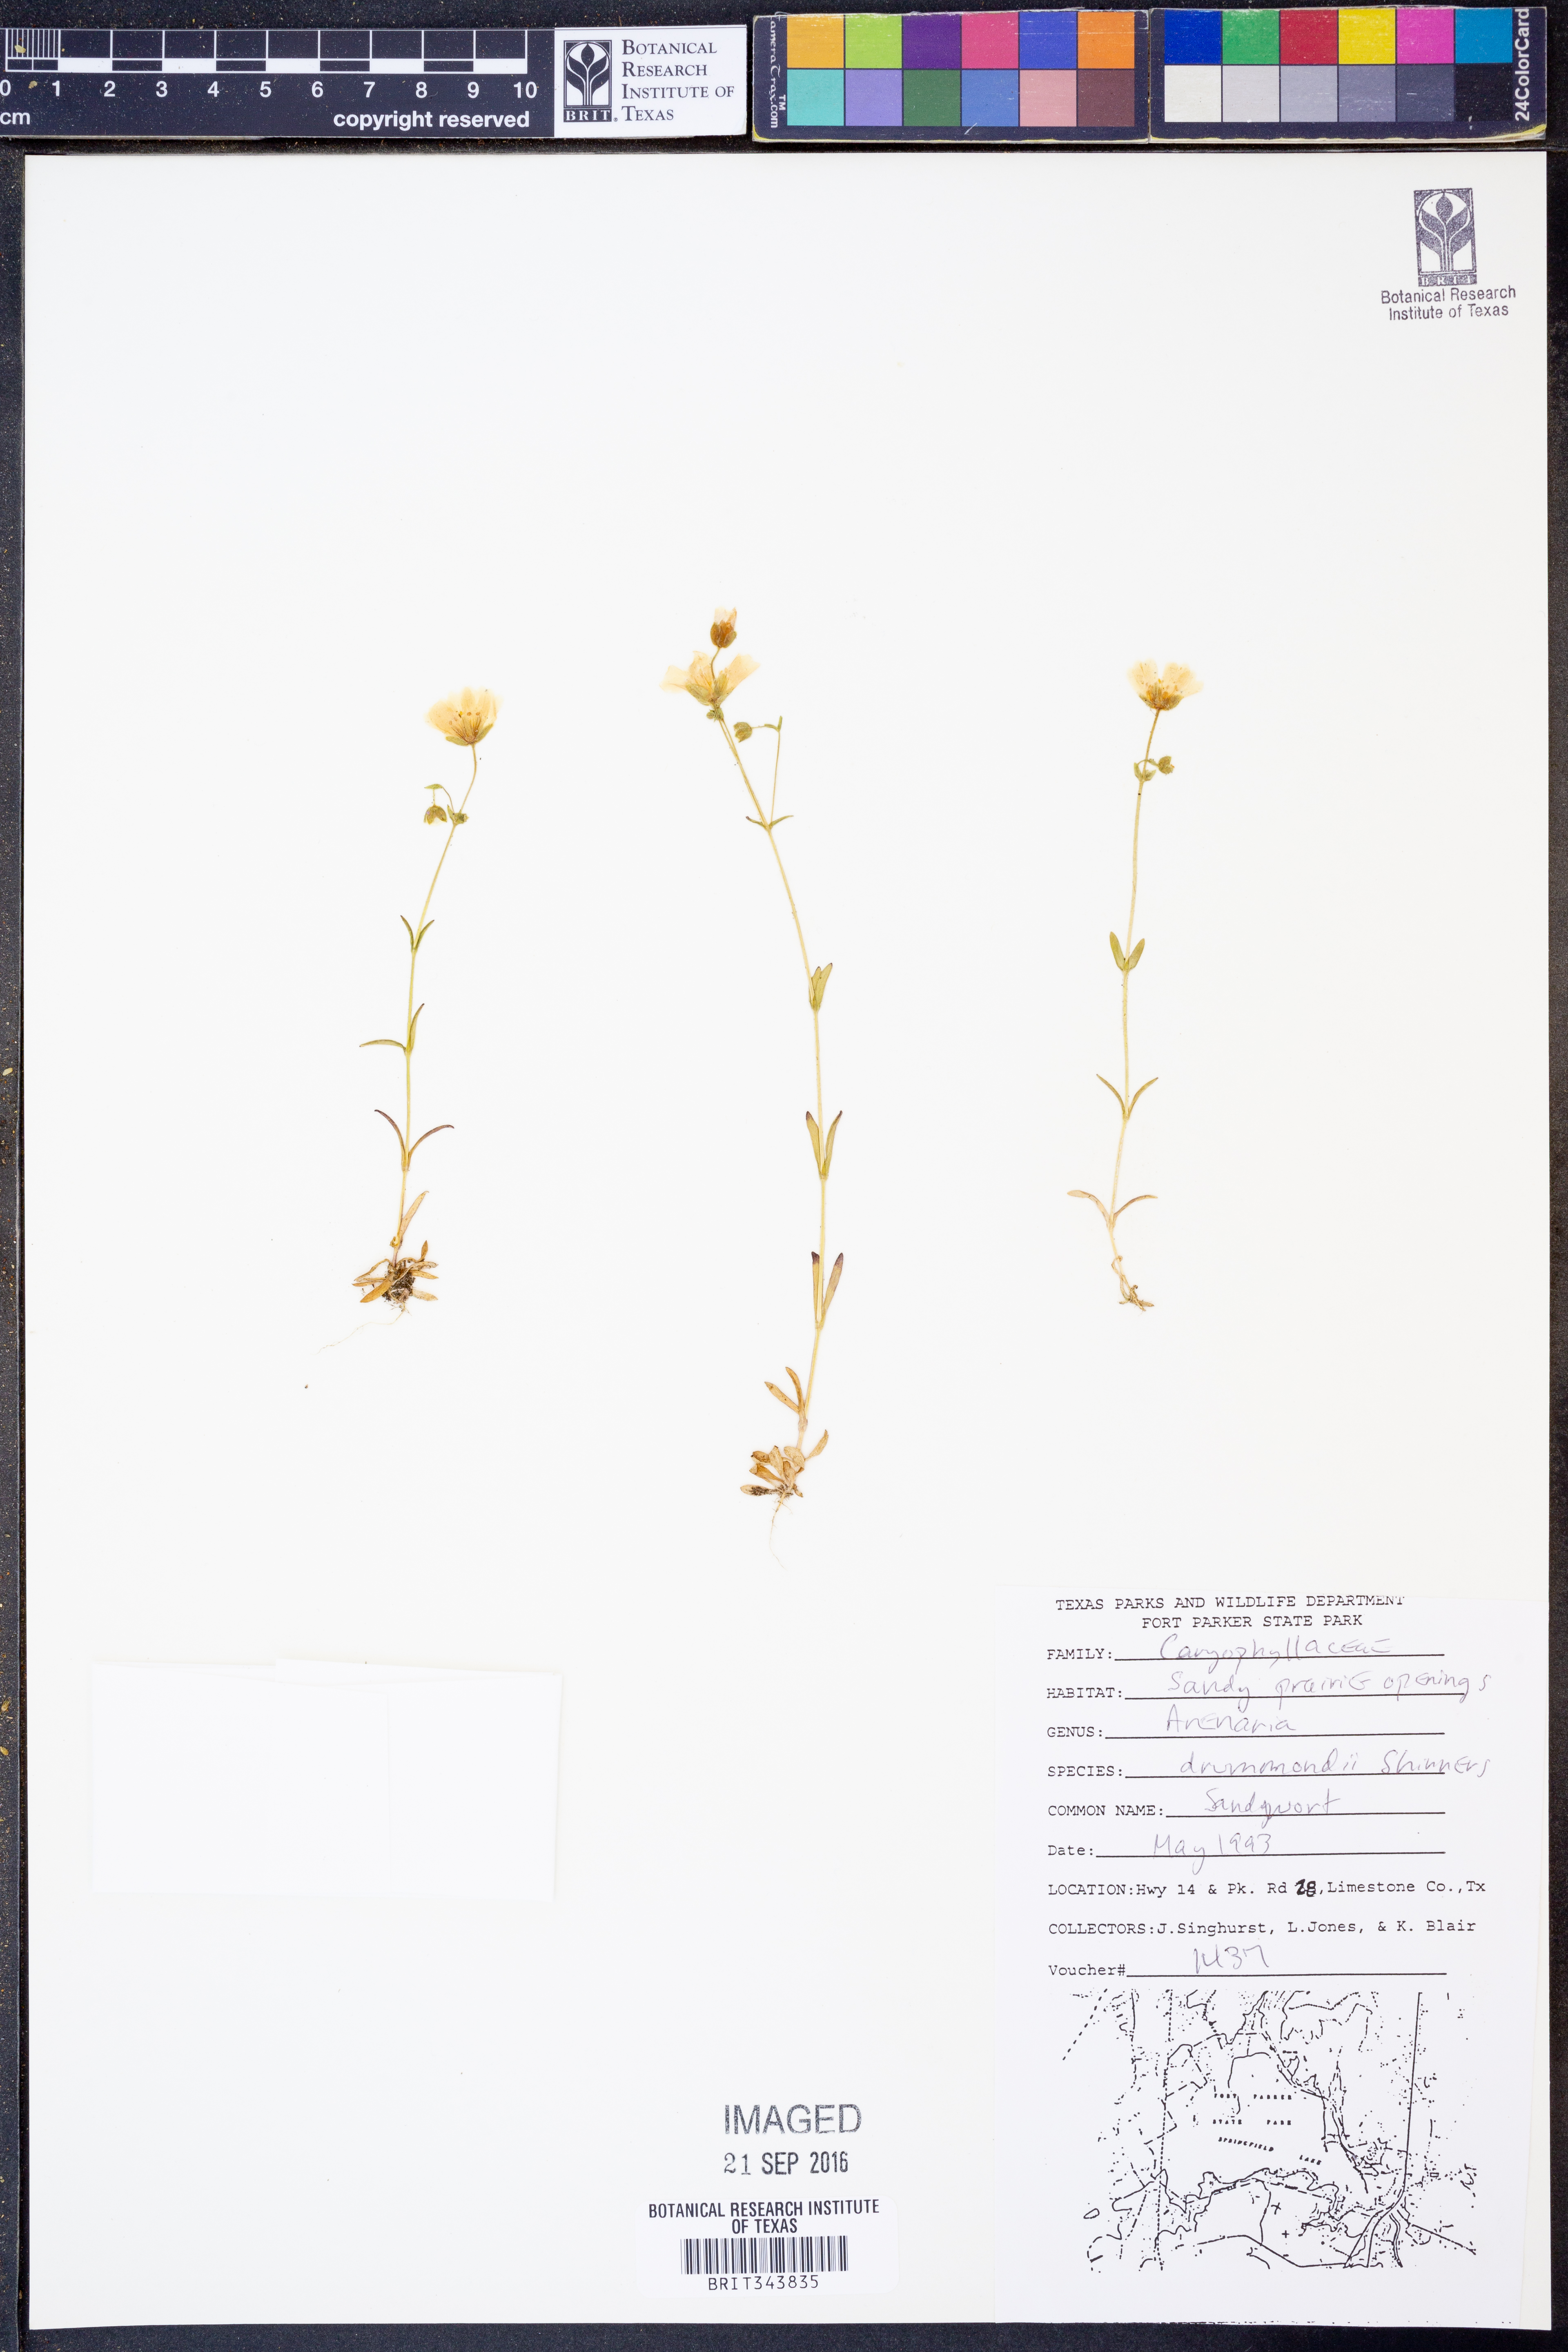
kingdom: Plantae
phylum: Tracheophyta
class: Magnoliopsida
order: Caryophyllales
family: Caryophyllaceae
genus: Geocarpon
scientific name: Geocarpon nuttallii
